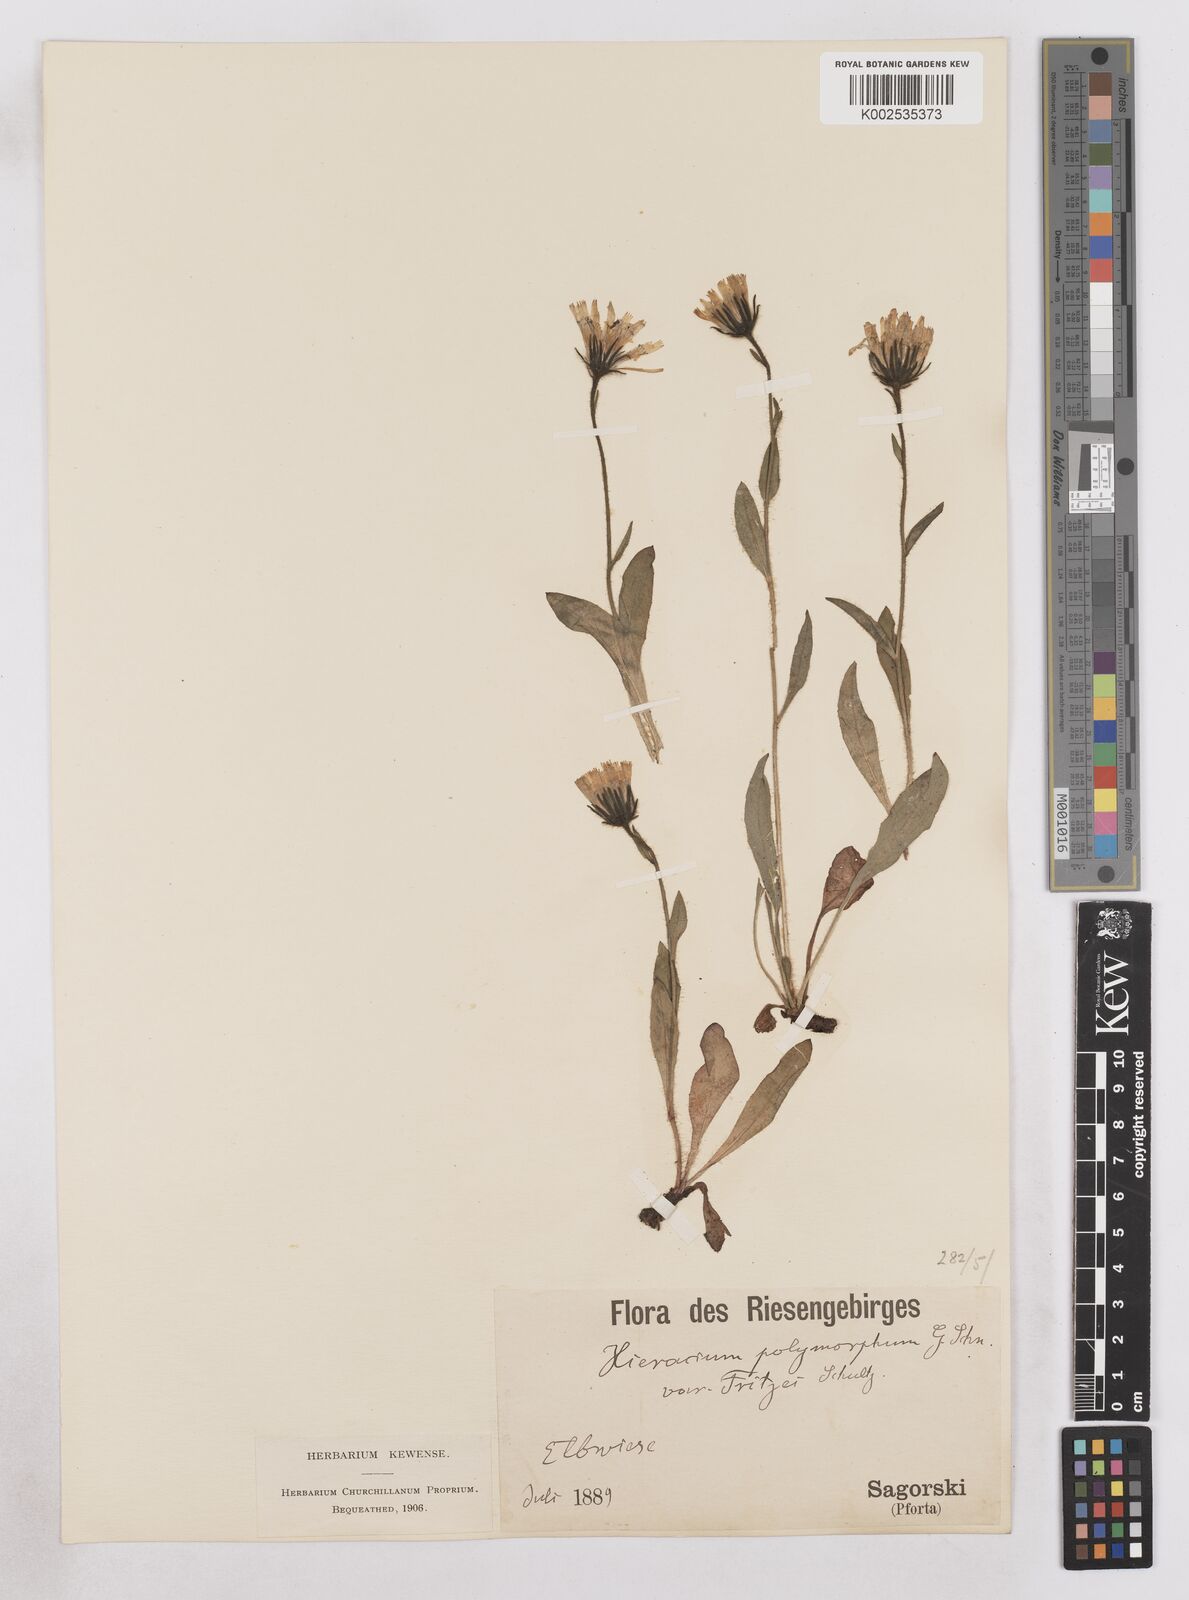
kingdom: Plantae
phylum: Tracheophyta
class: Magnoliopsida
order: Asterales
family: Asteraceae
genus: Hieracium
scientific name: Hieracium fritzei
